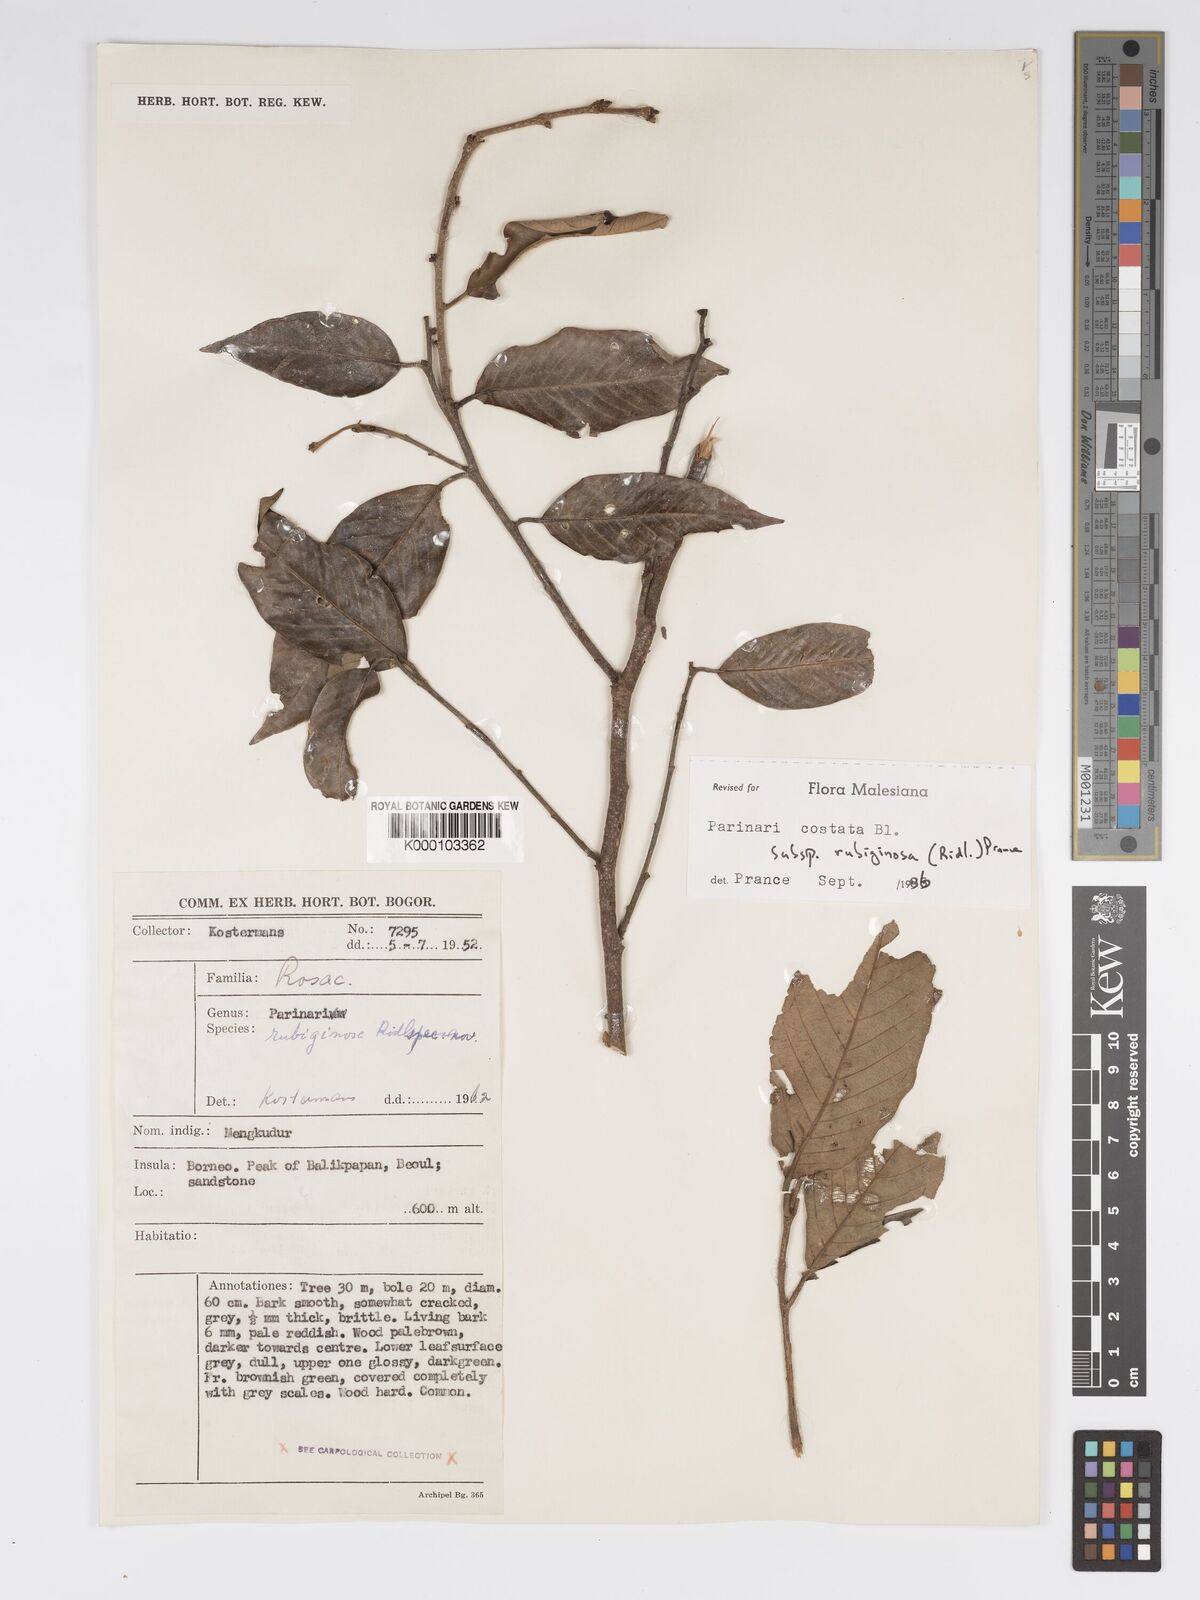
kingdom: Plantae
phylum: Tracheophyta
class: Magnoliopsida
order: Malpighiales
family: Chrysobalanaceae
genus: Parinari
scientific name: Parinari costata
